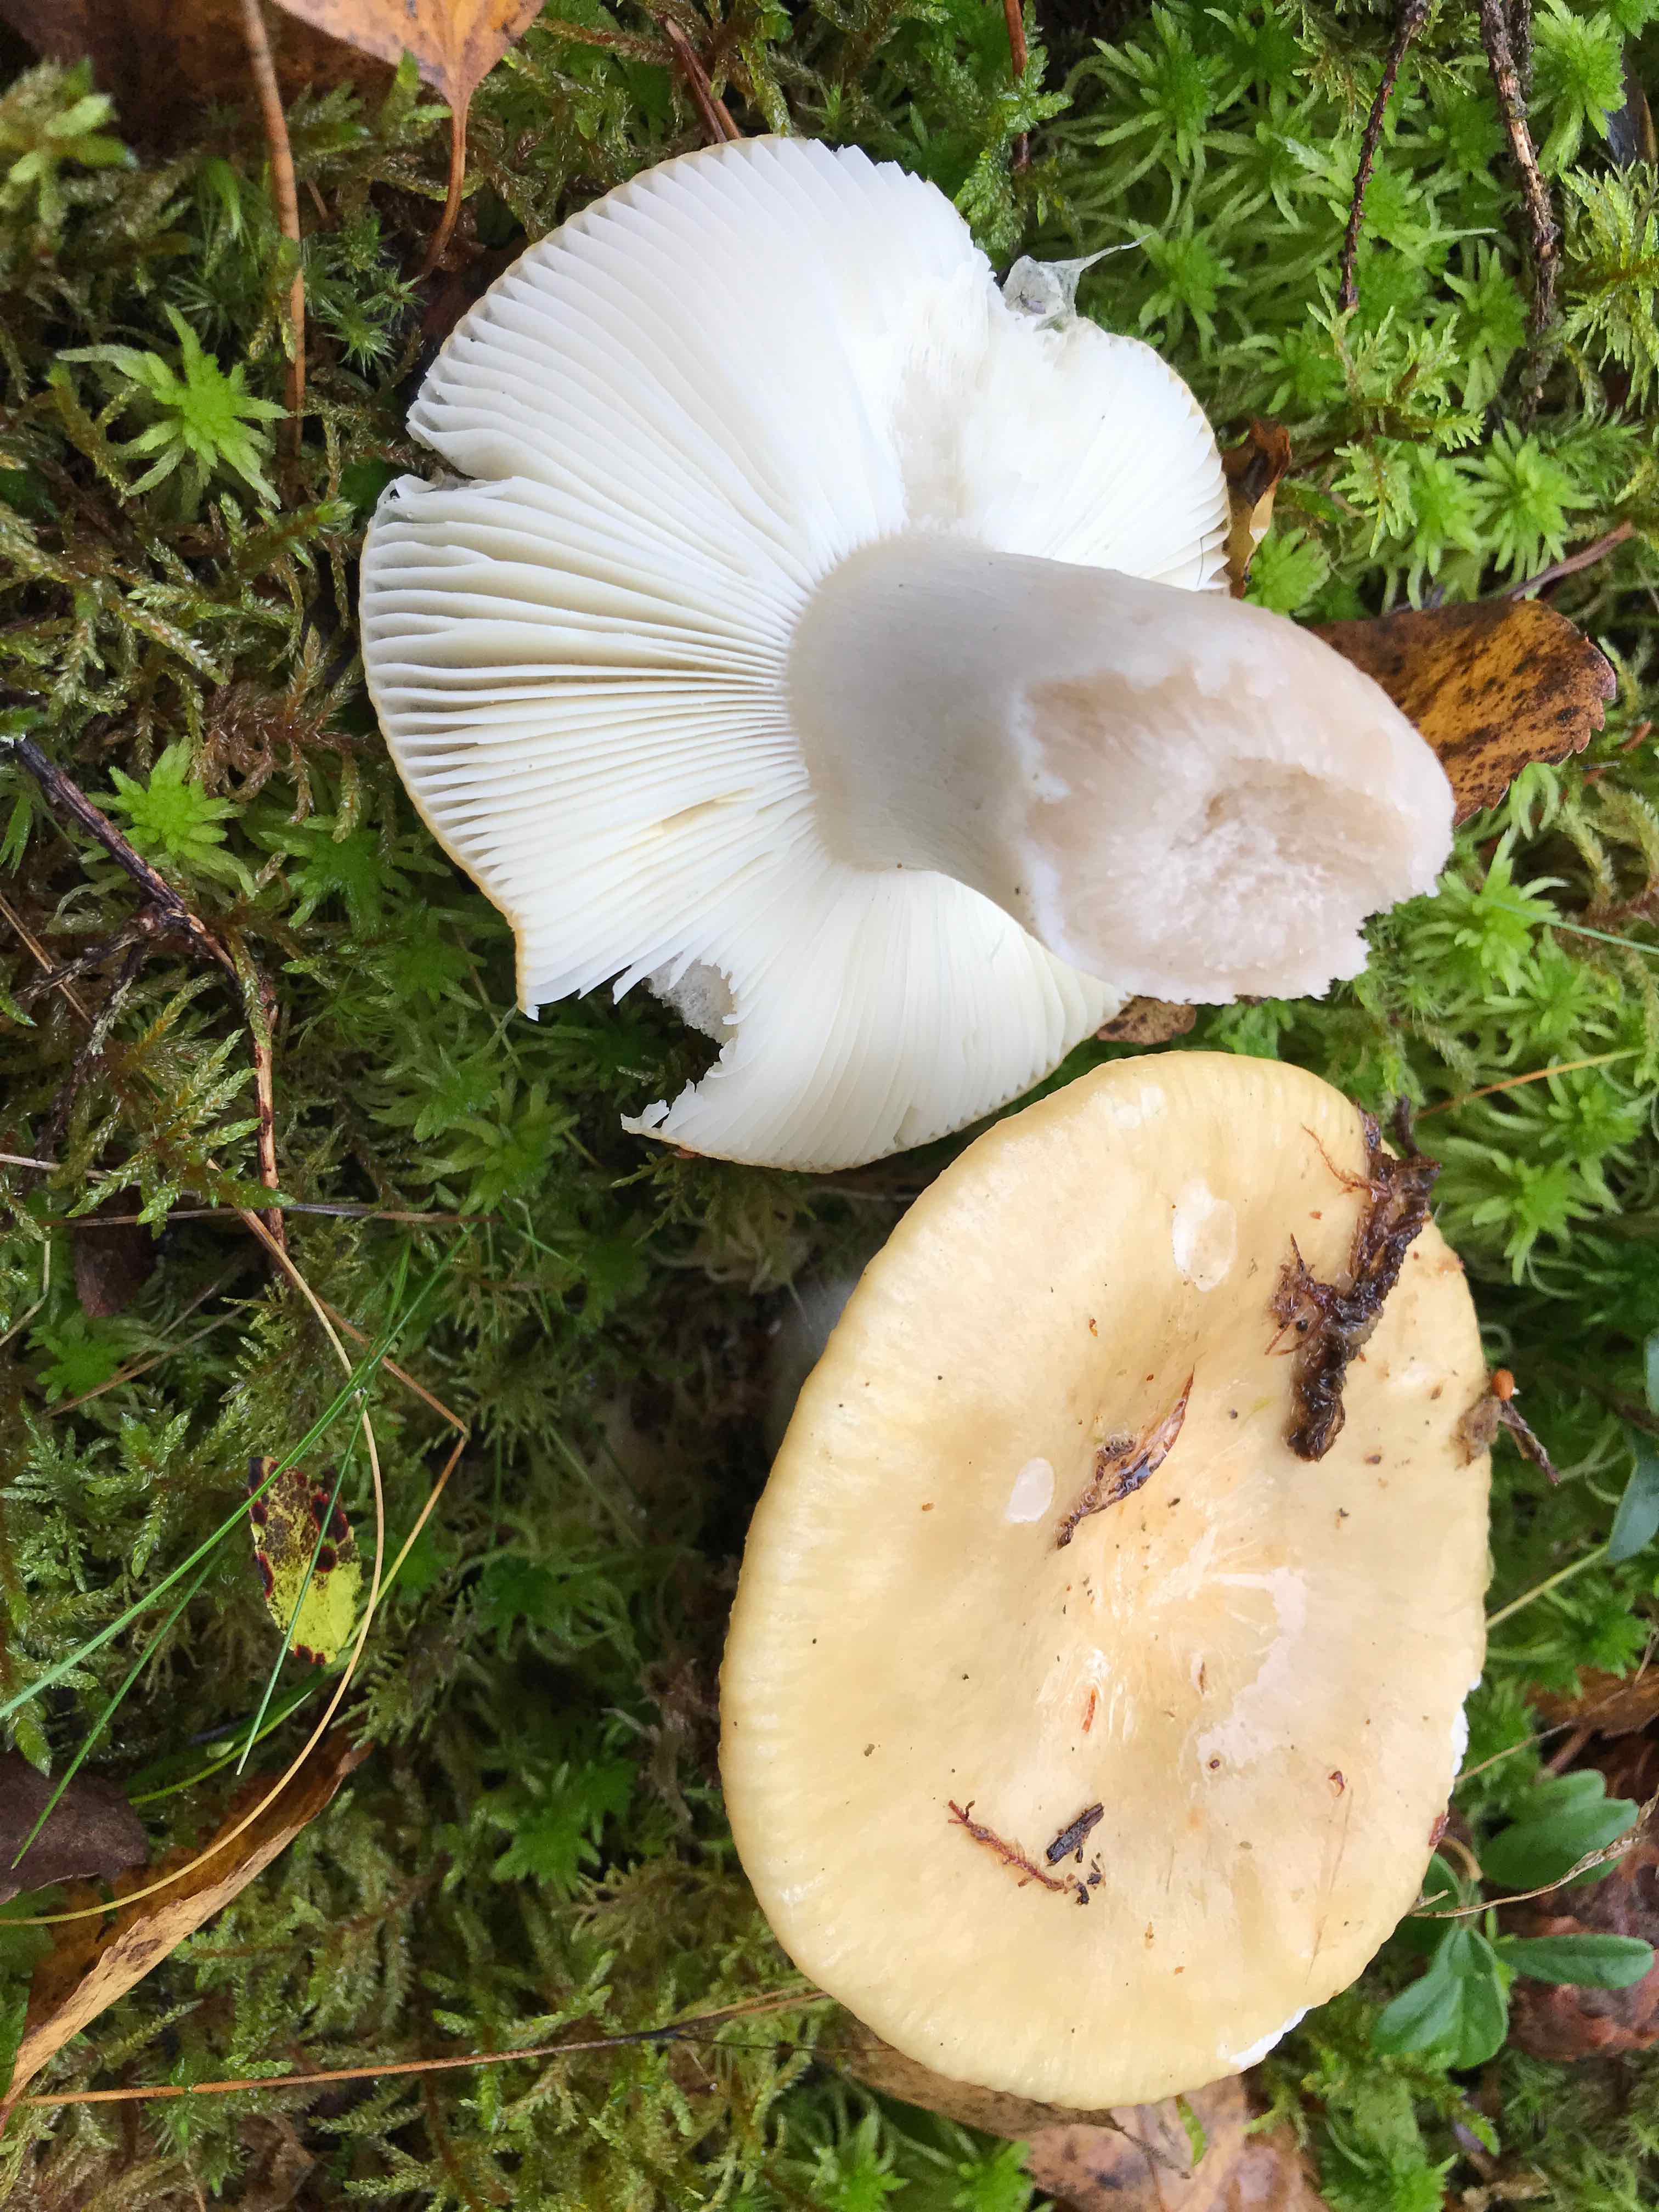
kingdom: Fungi
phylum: Basidiomycota
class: Agaricomycetes
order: Russulales
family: Russulaceae
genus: Russula
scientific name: Russula ochroleuca
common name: okkergul skørhat
